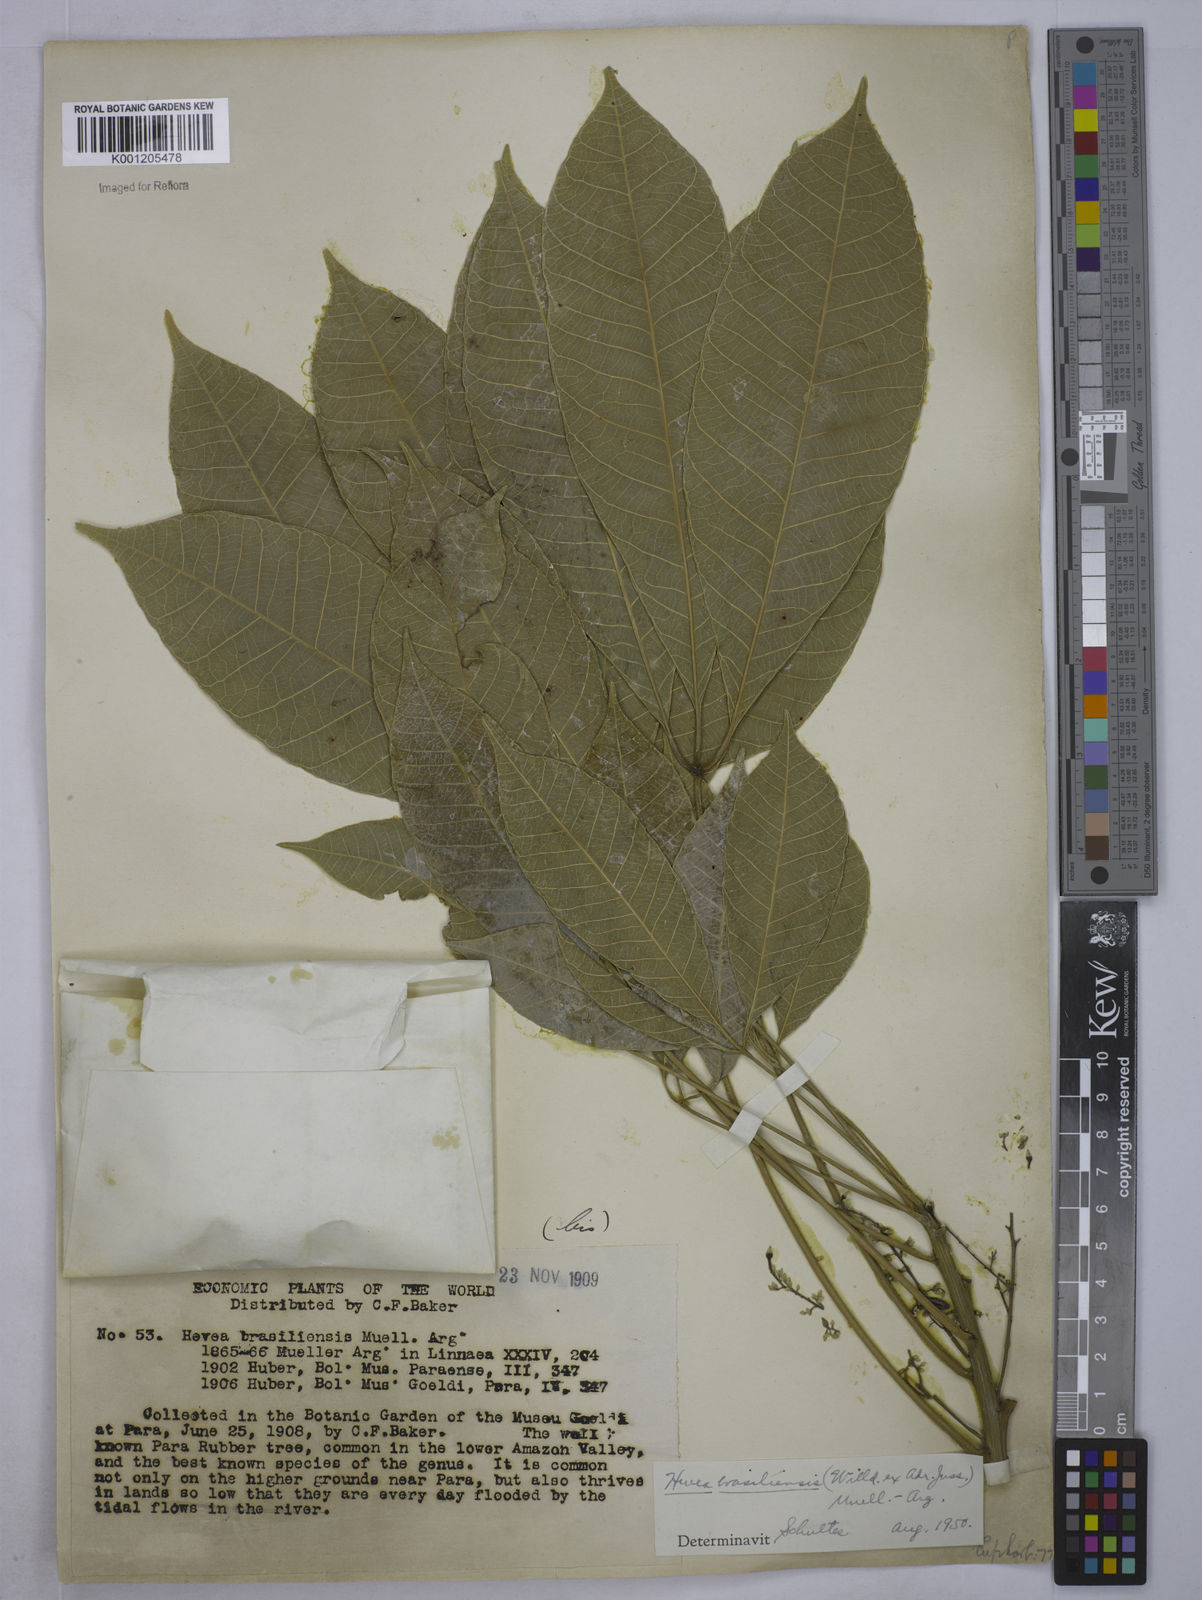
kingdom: Plantae
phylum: Tracheophyta
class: Magnoliopsida
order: Malpighiales
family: Euphorbiaceae
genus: Hevea
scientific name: Hevea
